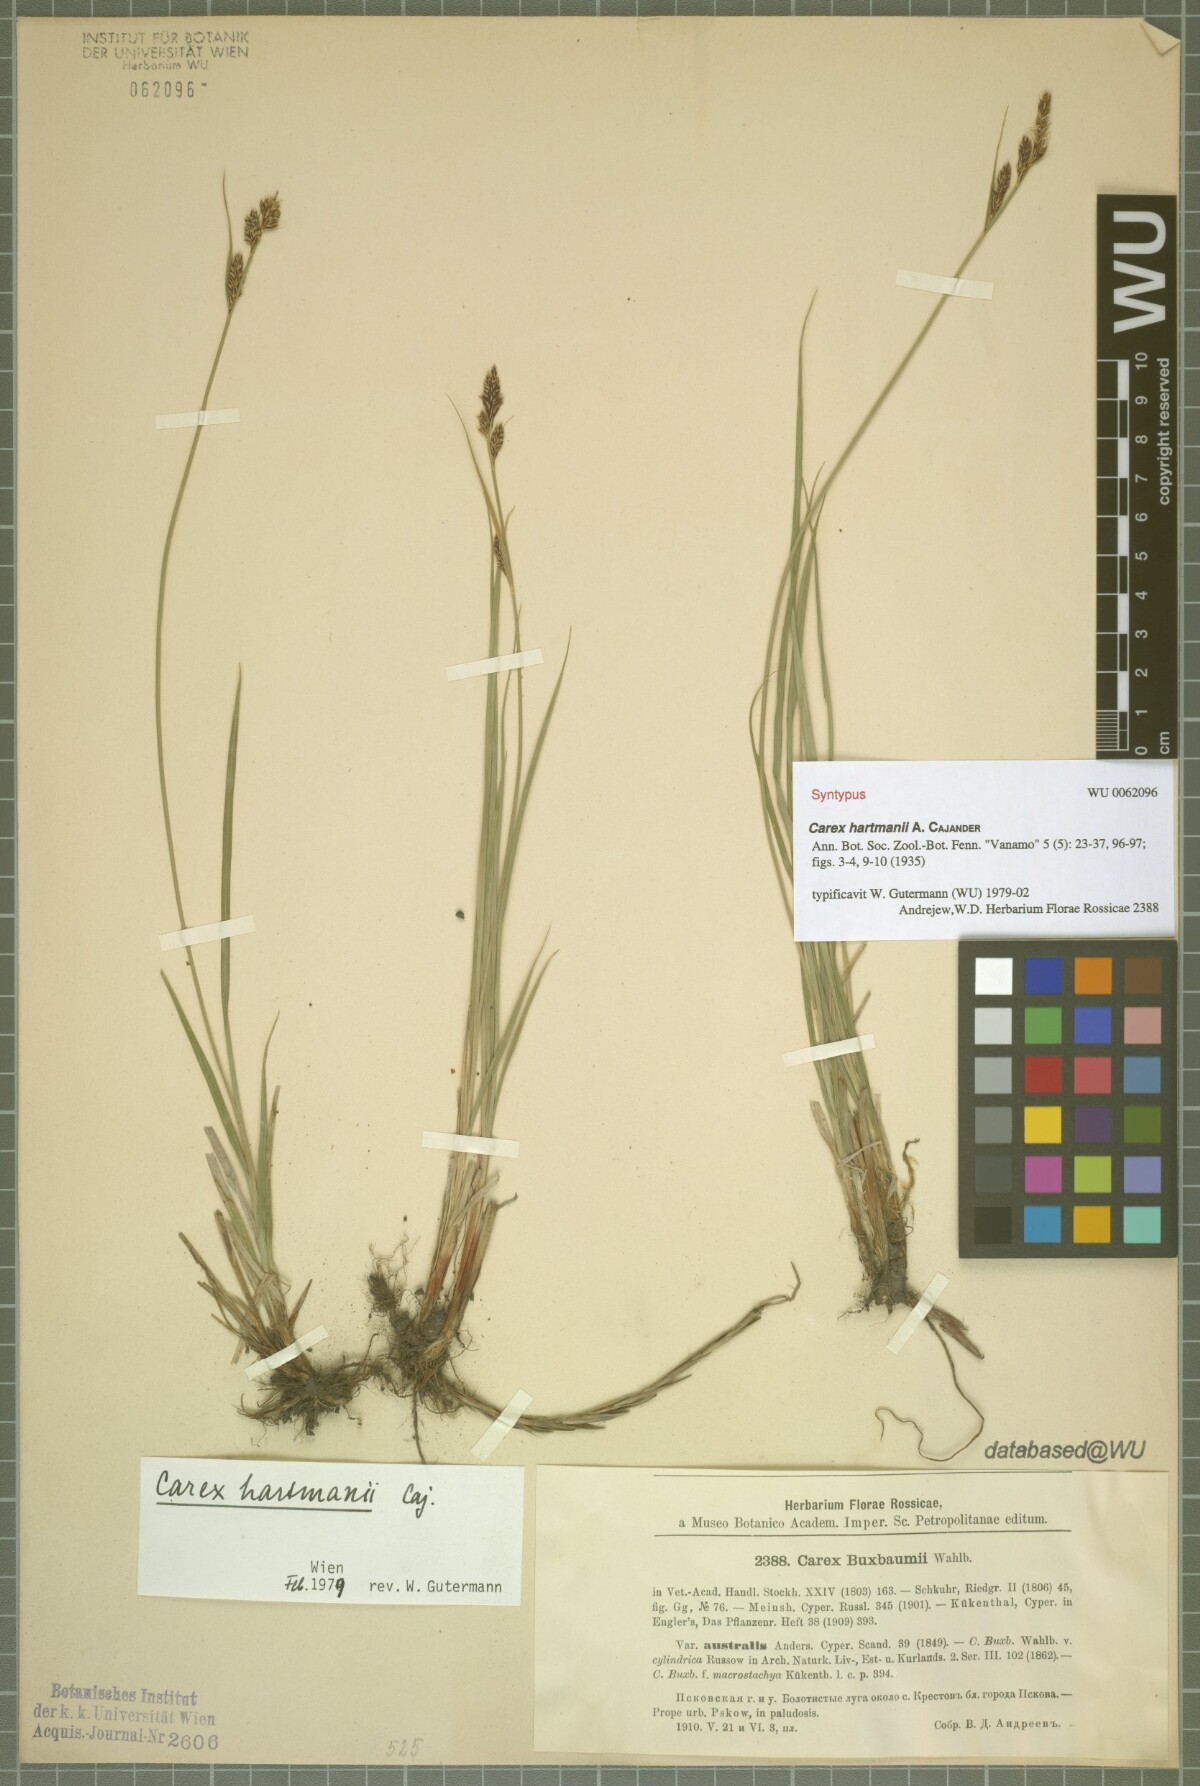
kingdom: Plantae
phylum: Tracheophyta
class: Liliopsida
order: Poales
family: Cyperaceae
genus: Carex
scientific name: Carex hartmaniorum
